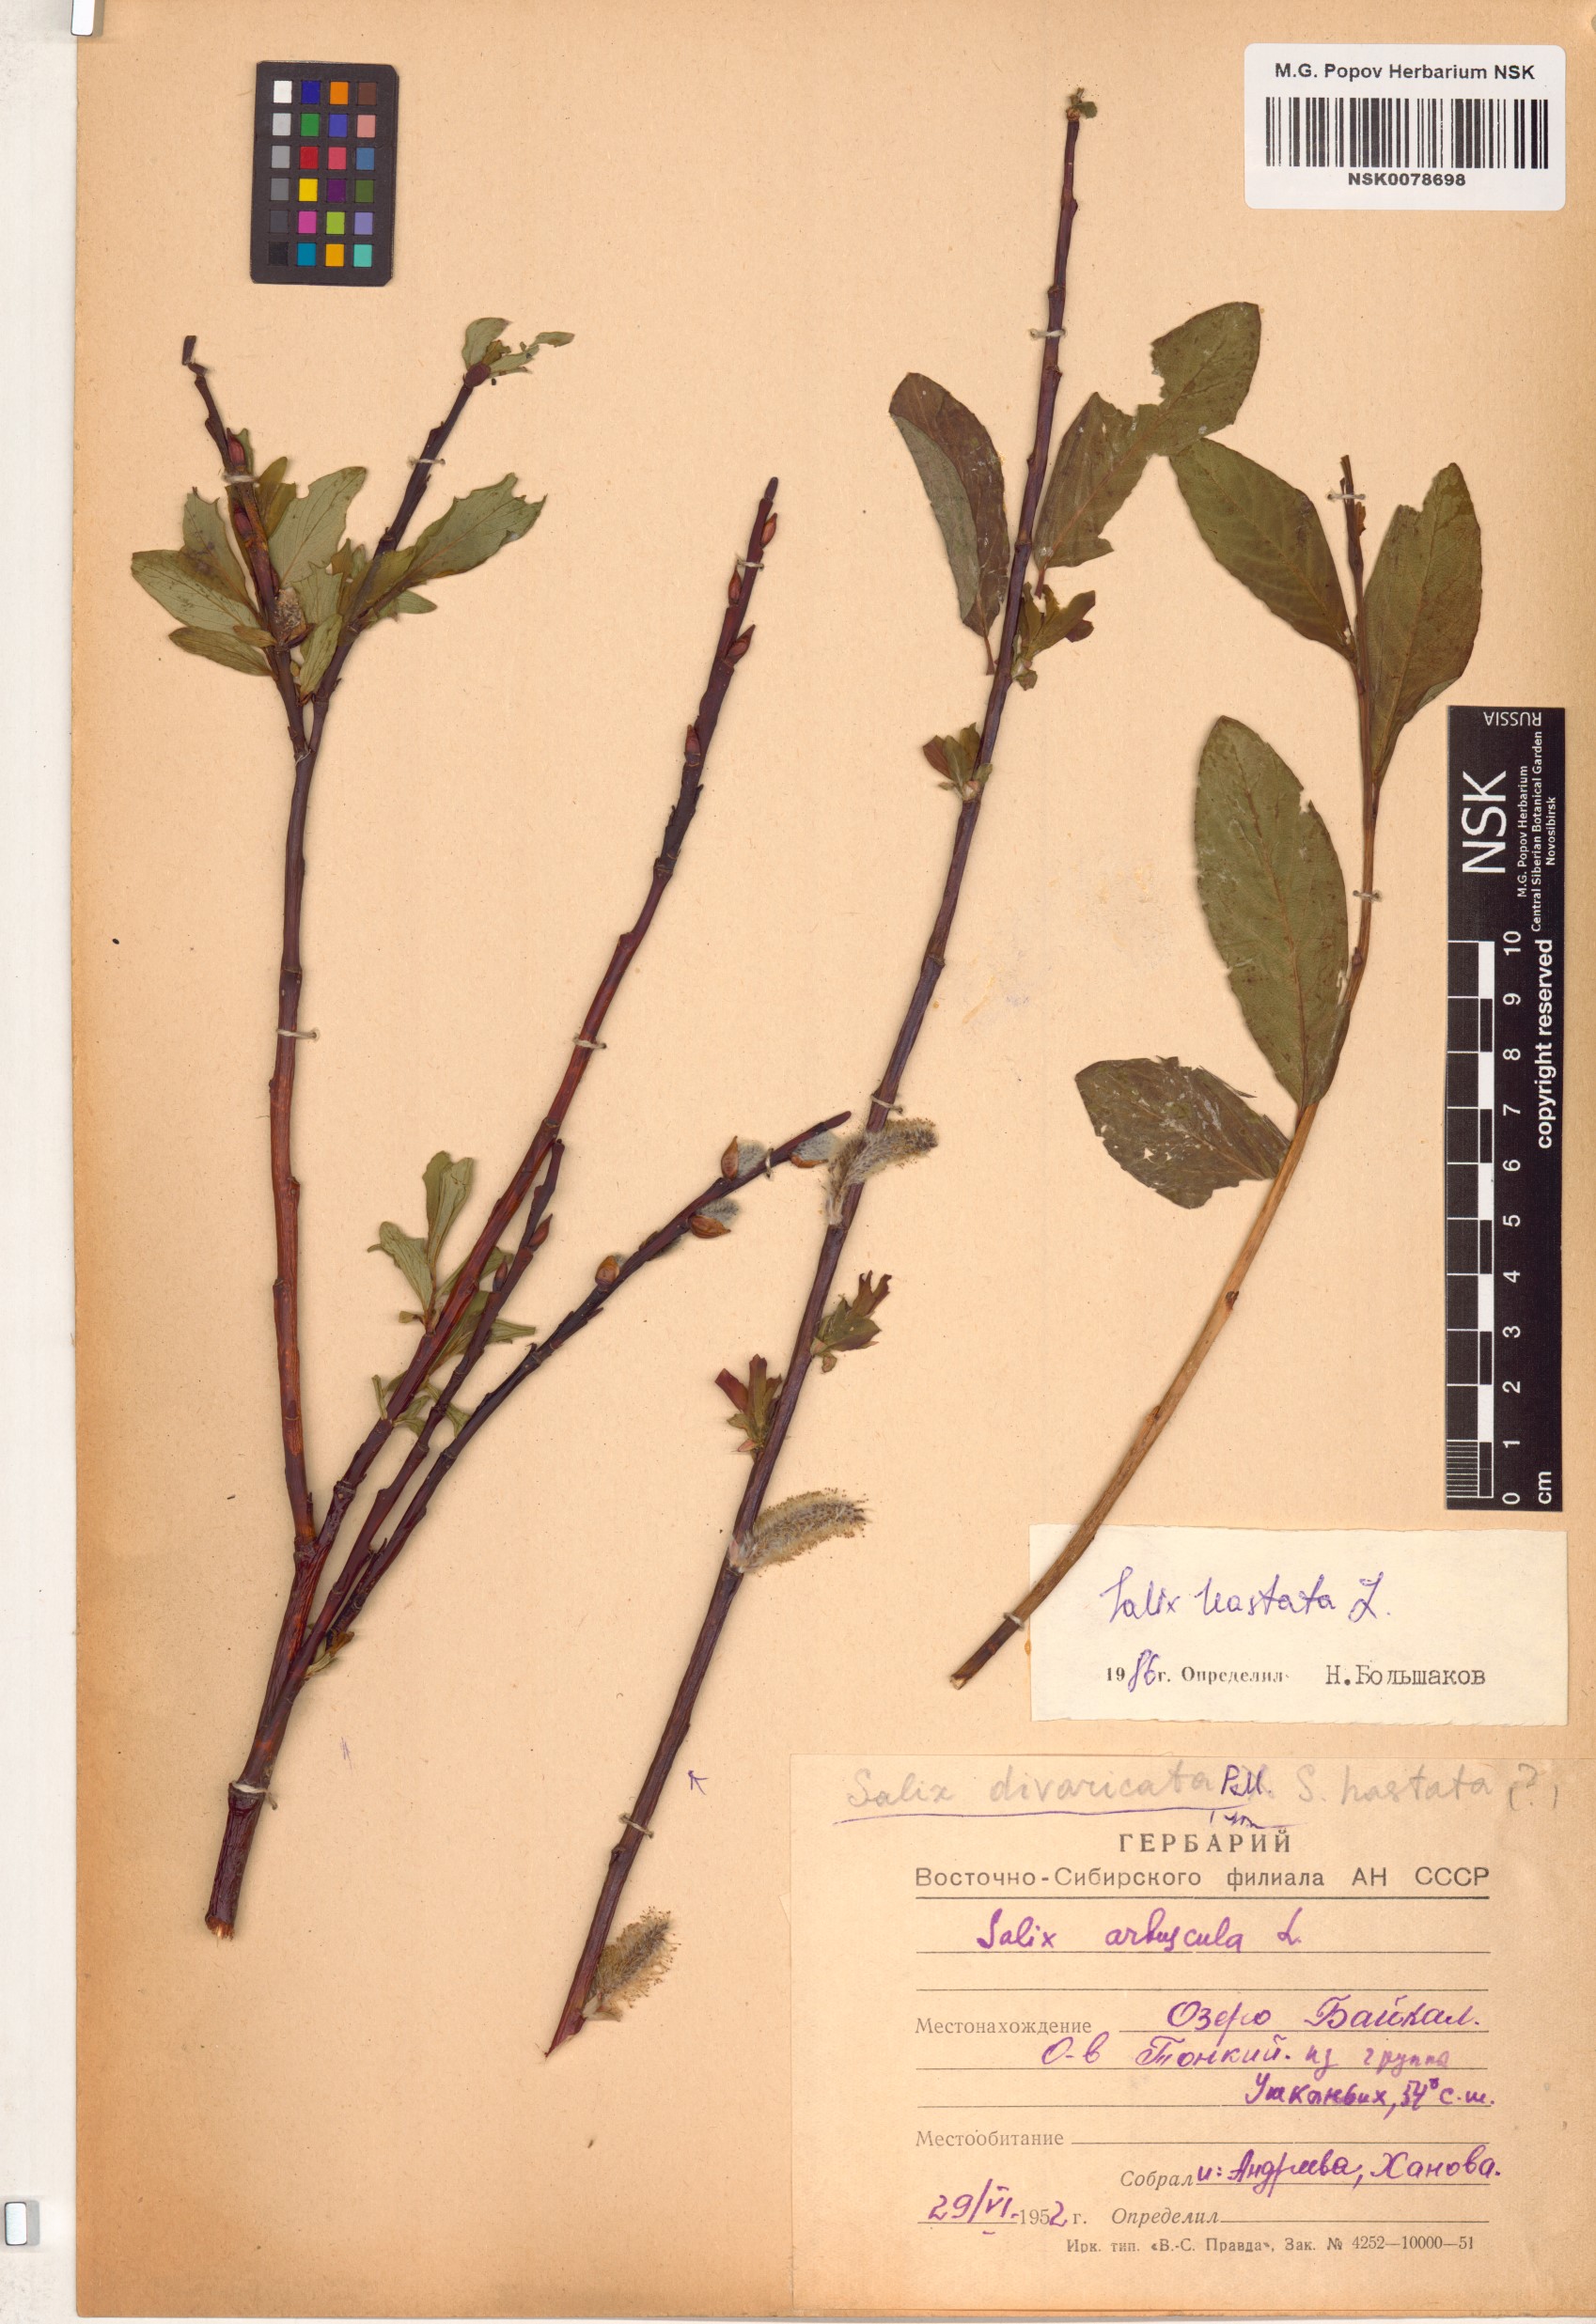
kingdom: Plantae
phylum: Tracheophyta
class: Magnoliopsida
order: Malpighiales
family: Salicaceae
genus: Salix
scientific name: Salix hastata
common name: Halberd willow
